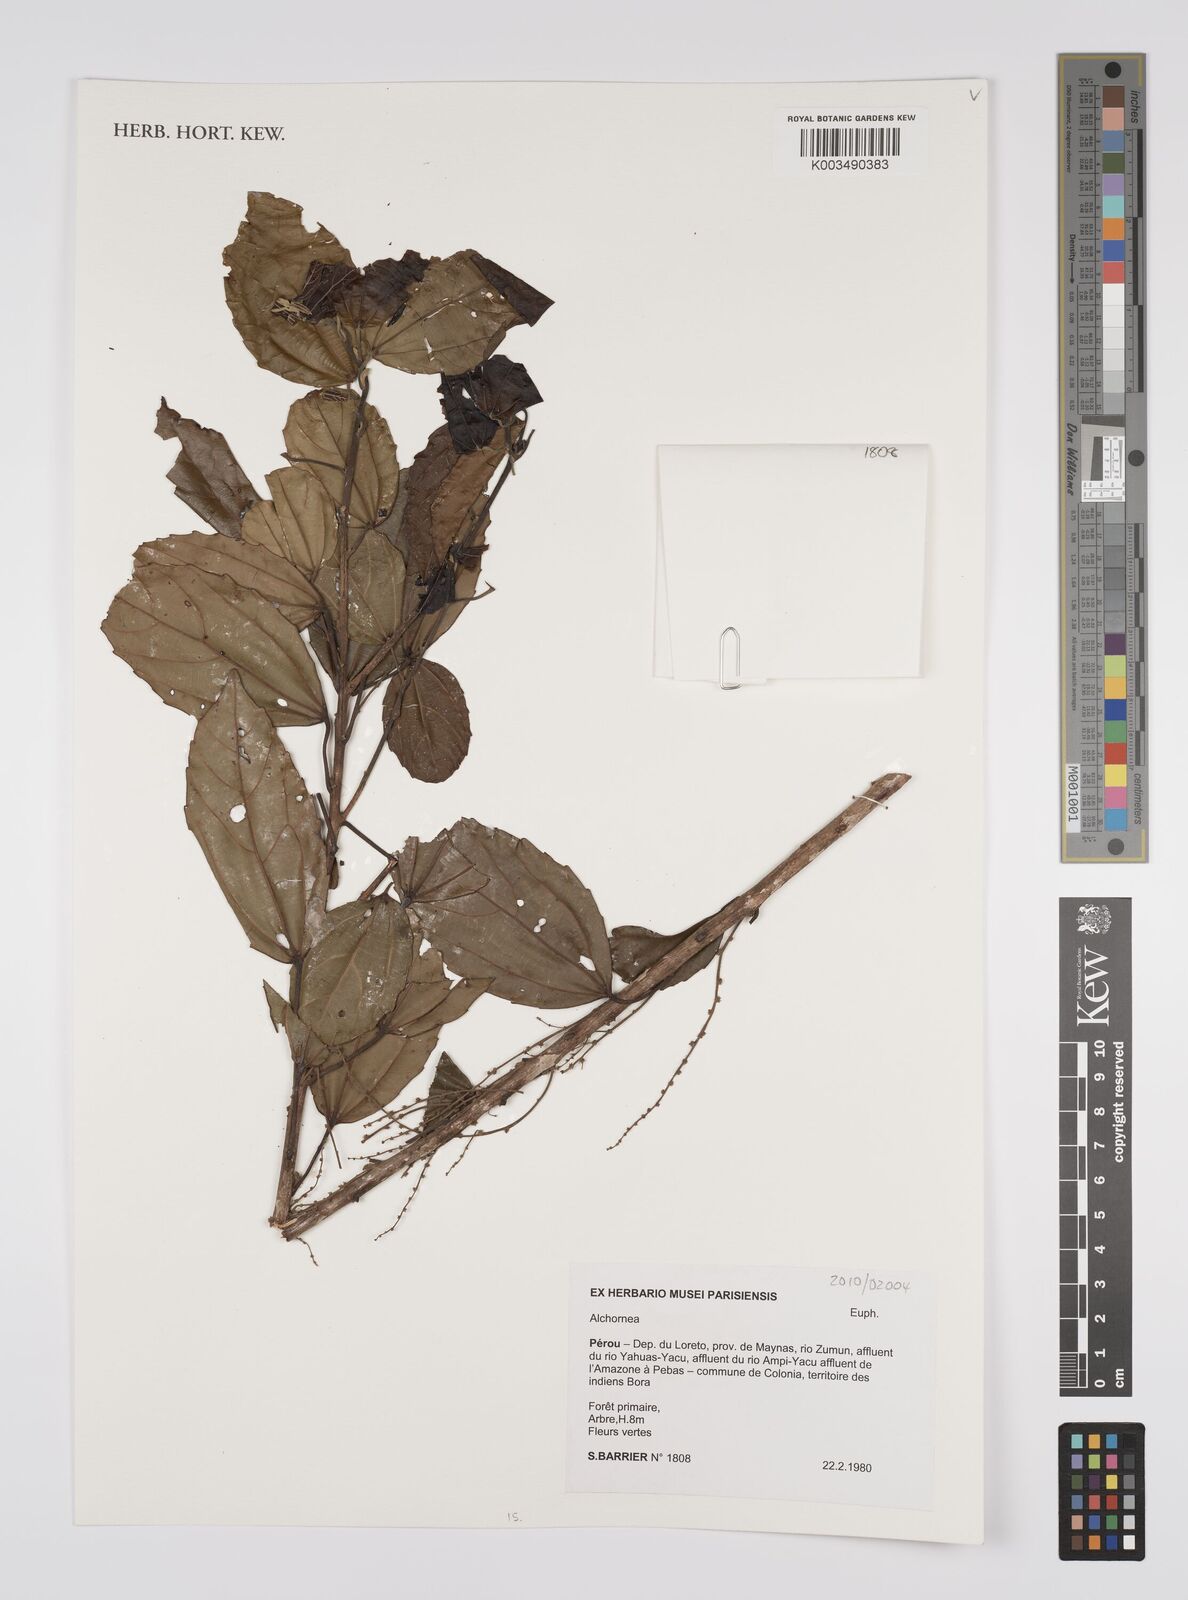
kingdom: Plantae
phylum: Tracheophyta
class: Magnoliopsida
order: Malpighiales
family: Euphorbiaceae
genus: Alchornea
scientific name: Alchornea
